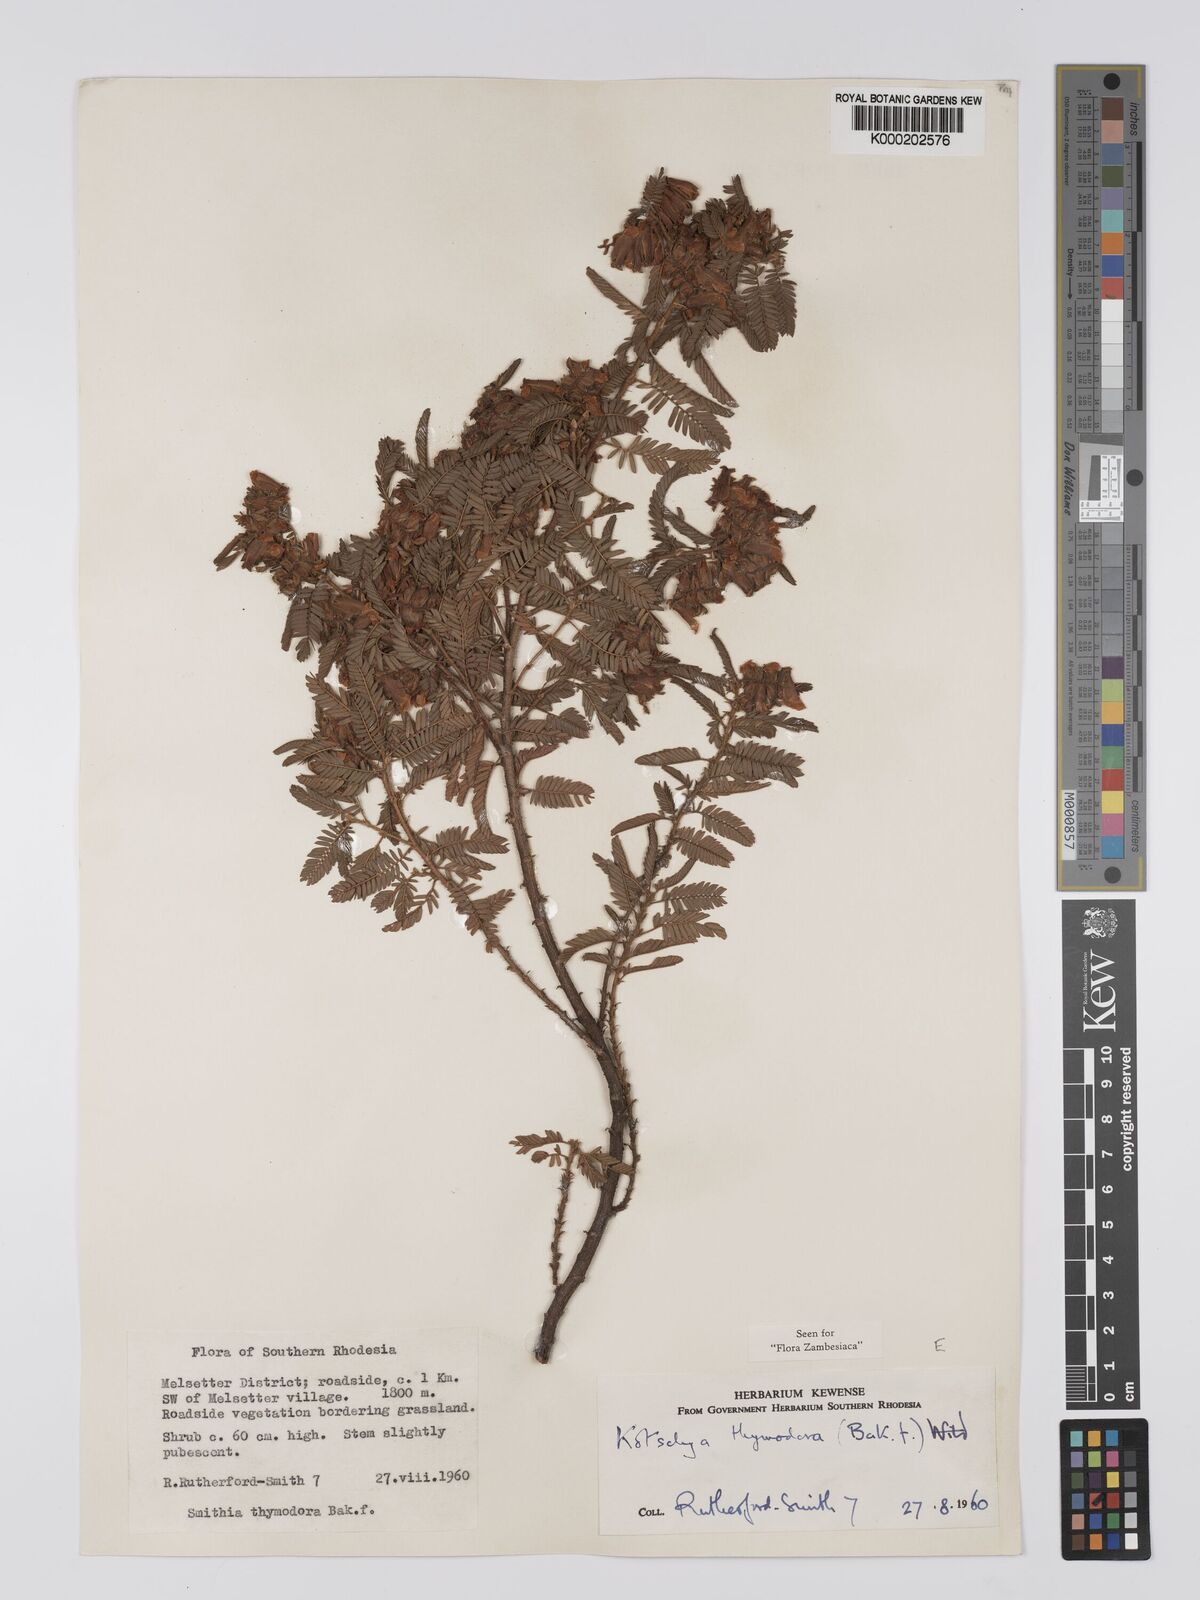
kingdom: Plantae
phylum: Tracheophyta
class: Magnoliopsida
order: Fabales
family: Fabaceae
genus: Kotschya
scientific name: Kotschya thymodora
